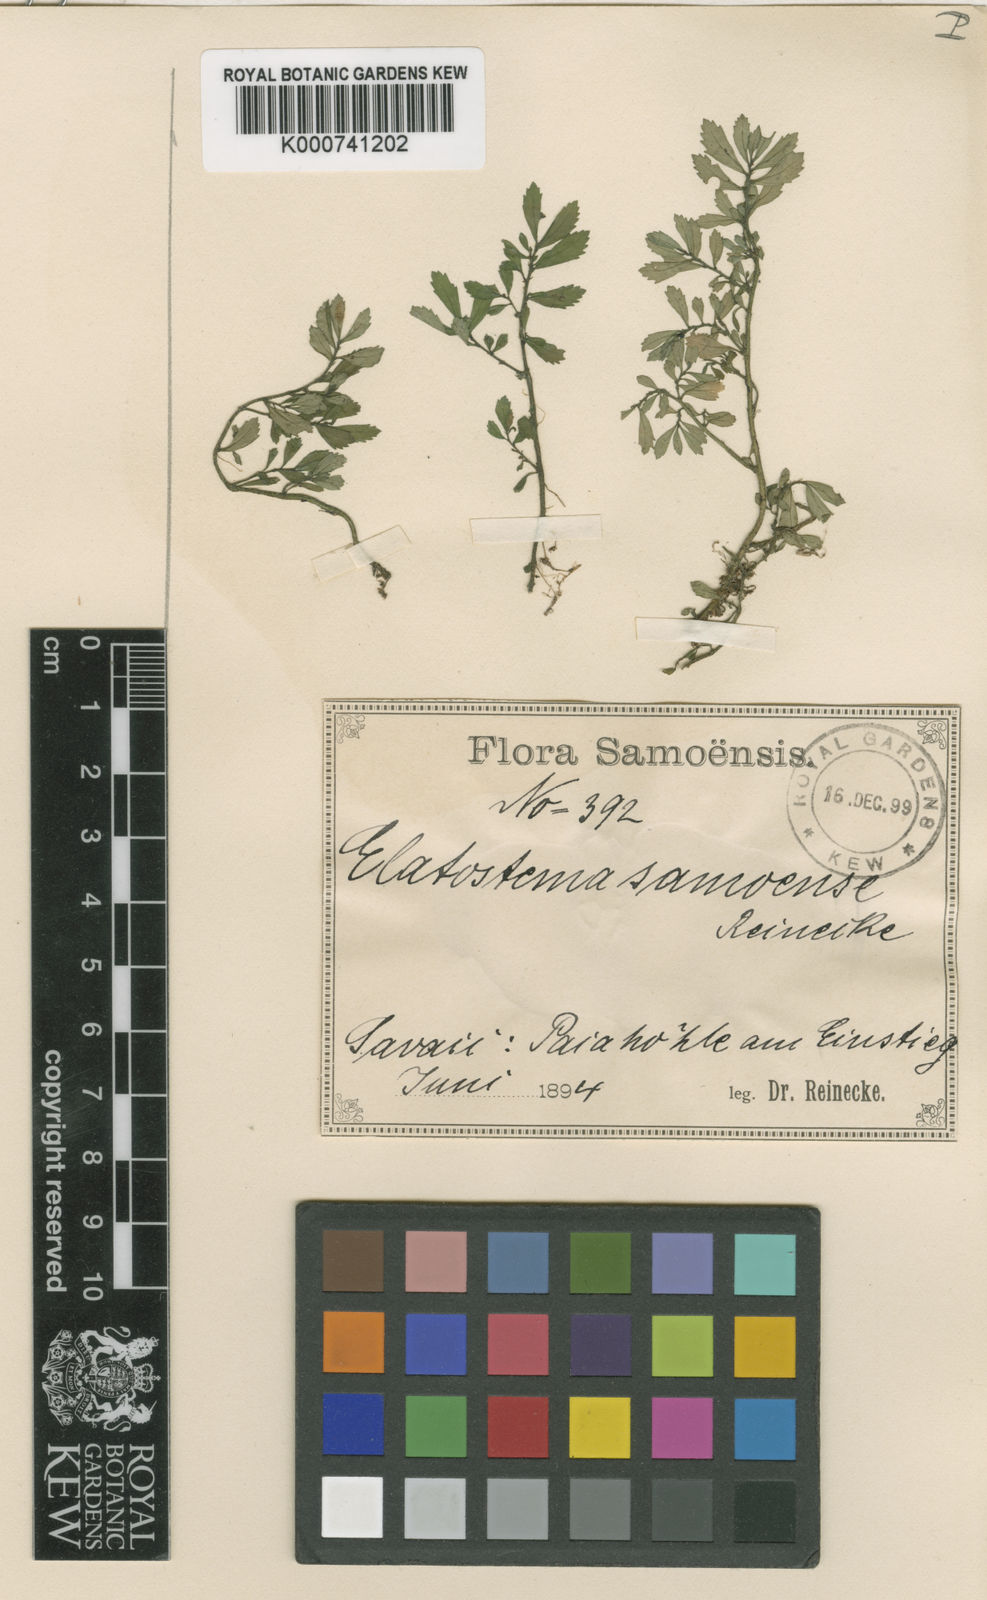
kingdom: Plantae
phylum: Tracheophyta
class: Magnoliopsida
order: Rosales
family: Urticaceae
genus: Elatostema
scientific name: Elatostema samoense
